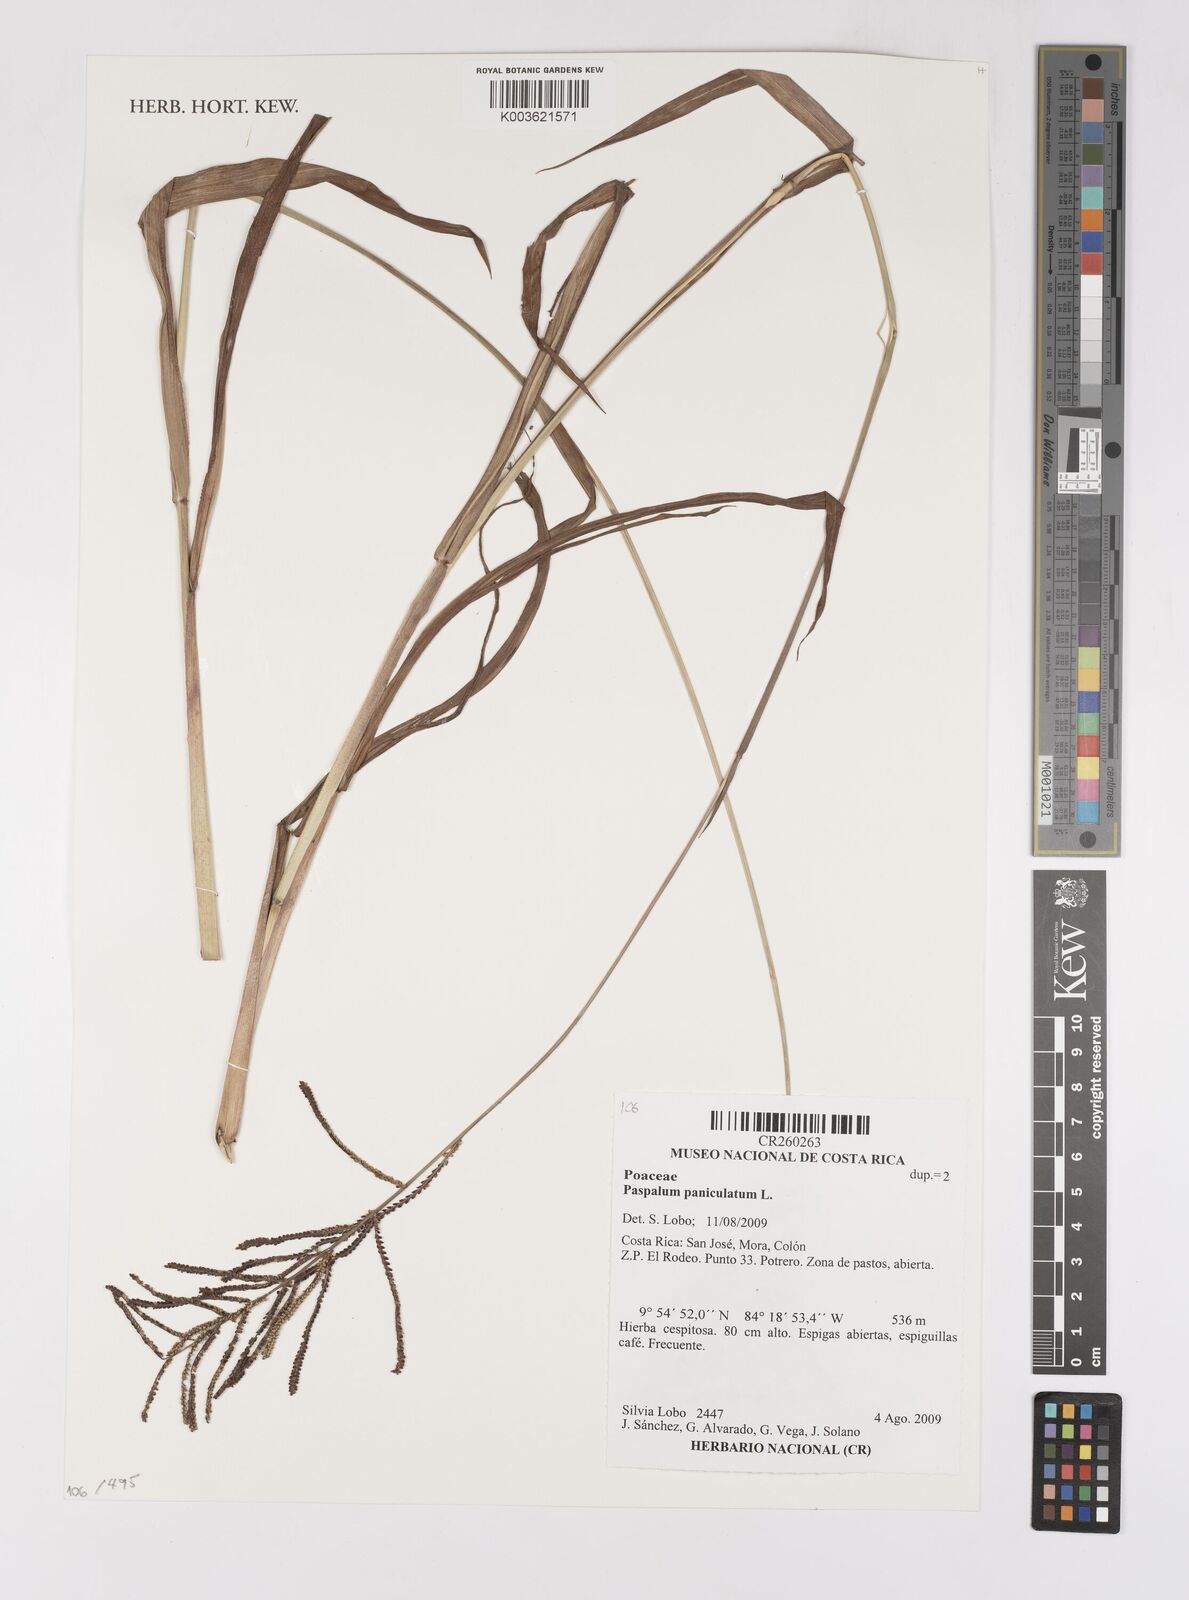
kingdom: Plantae
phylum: Tracheophyta
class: Liliopsida
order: Poales
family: Poaceae
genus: Paspalum
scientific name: Paspalum paniculatum
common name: Arrocillo
